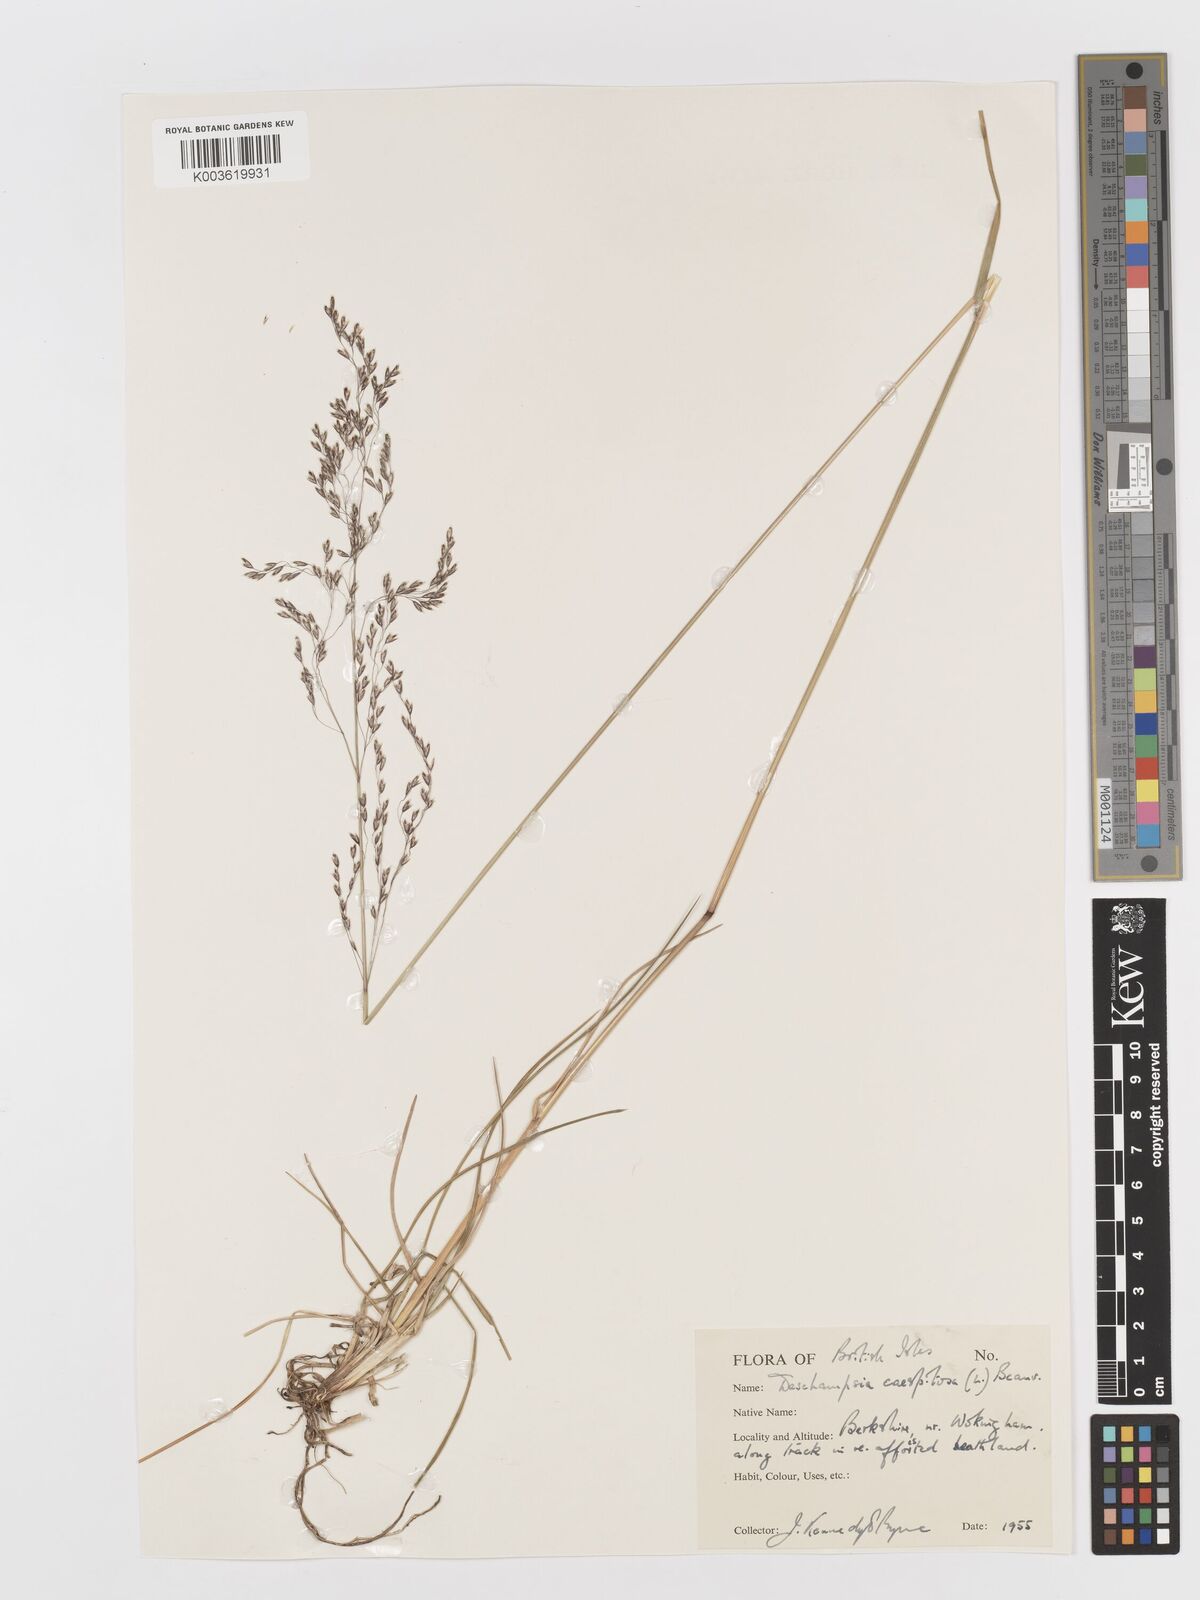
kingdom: Plantae
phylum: Tracheophyta
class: Liliopsida
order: Poales
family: Poaceae
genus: Deschampsia
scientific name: Deschampsia
